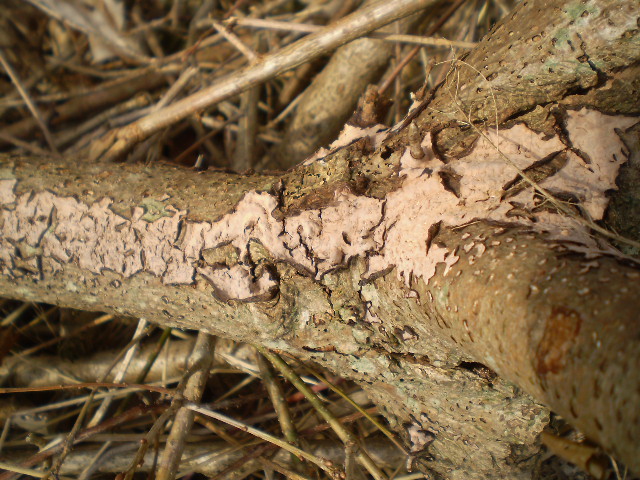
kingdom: Fungi
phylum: Basidiomycota
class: Agaricomycetes
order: Russulales
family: Peniophoraceae
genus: Peniophora
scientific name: Peniophora quercina
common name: ege-voksskind
